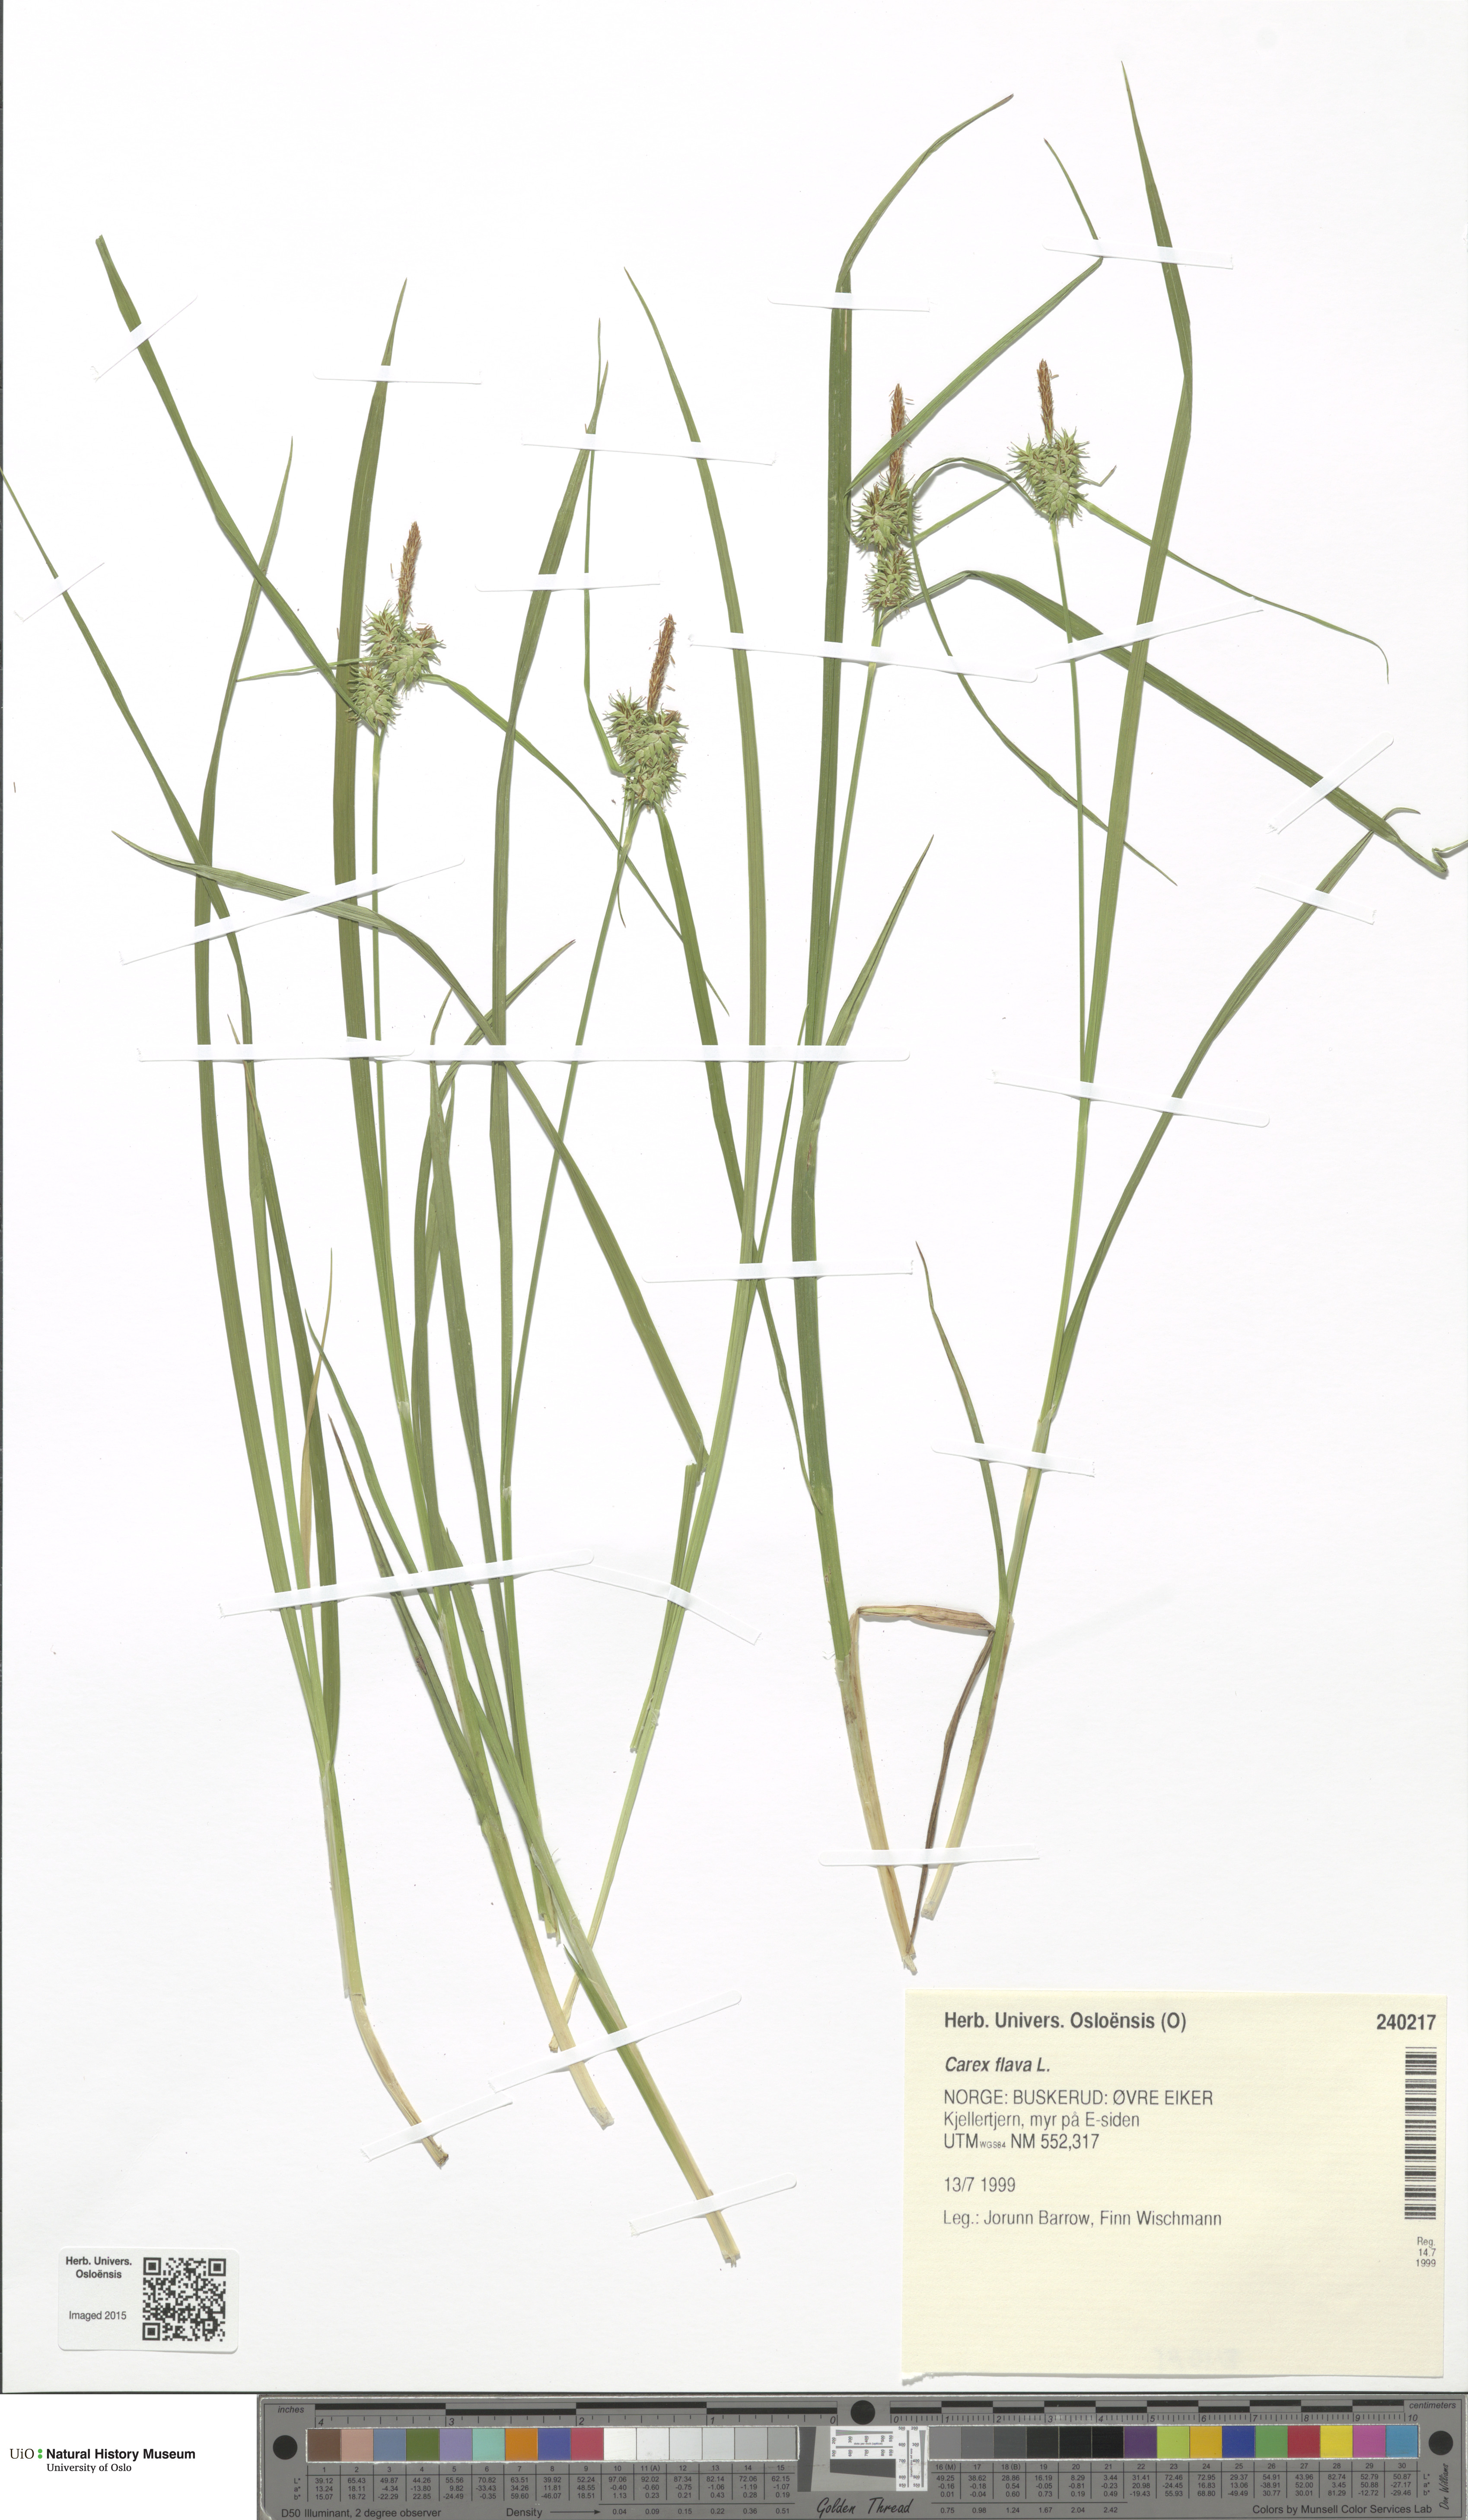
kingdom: Plantae
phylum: Tracheophyta
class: Liliopsida
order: Poales
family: Cyperaceae
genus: Carex
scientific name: Carex flava
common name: Large yellow-sedge
